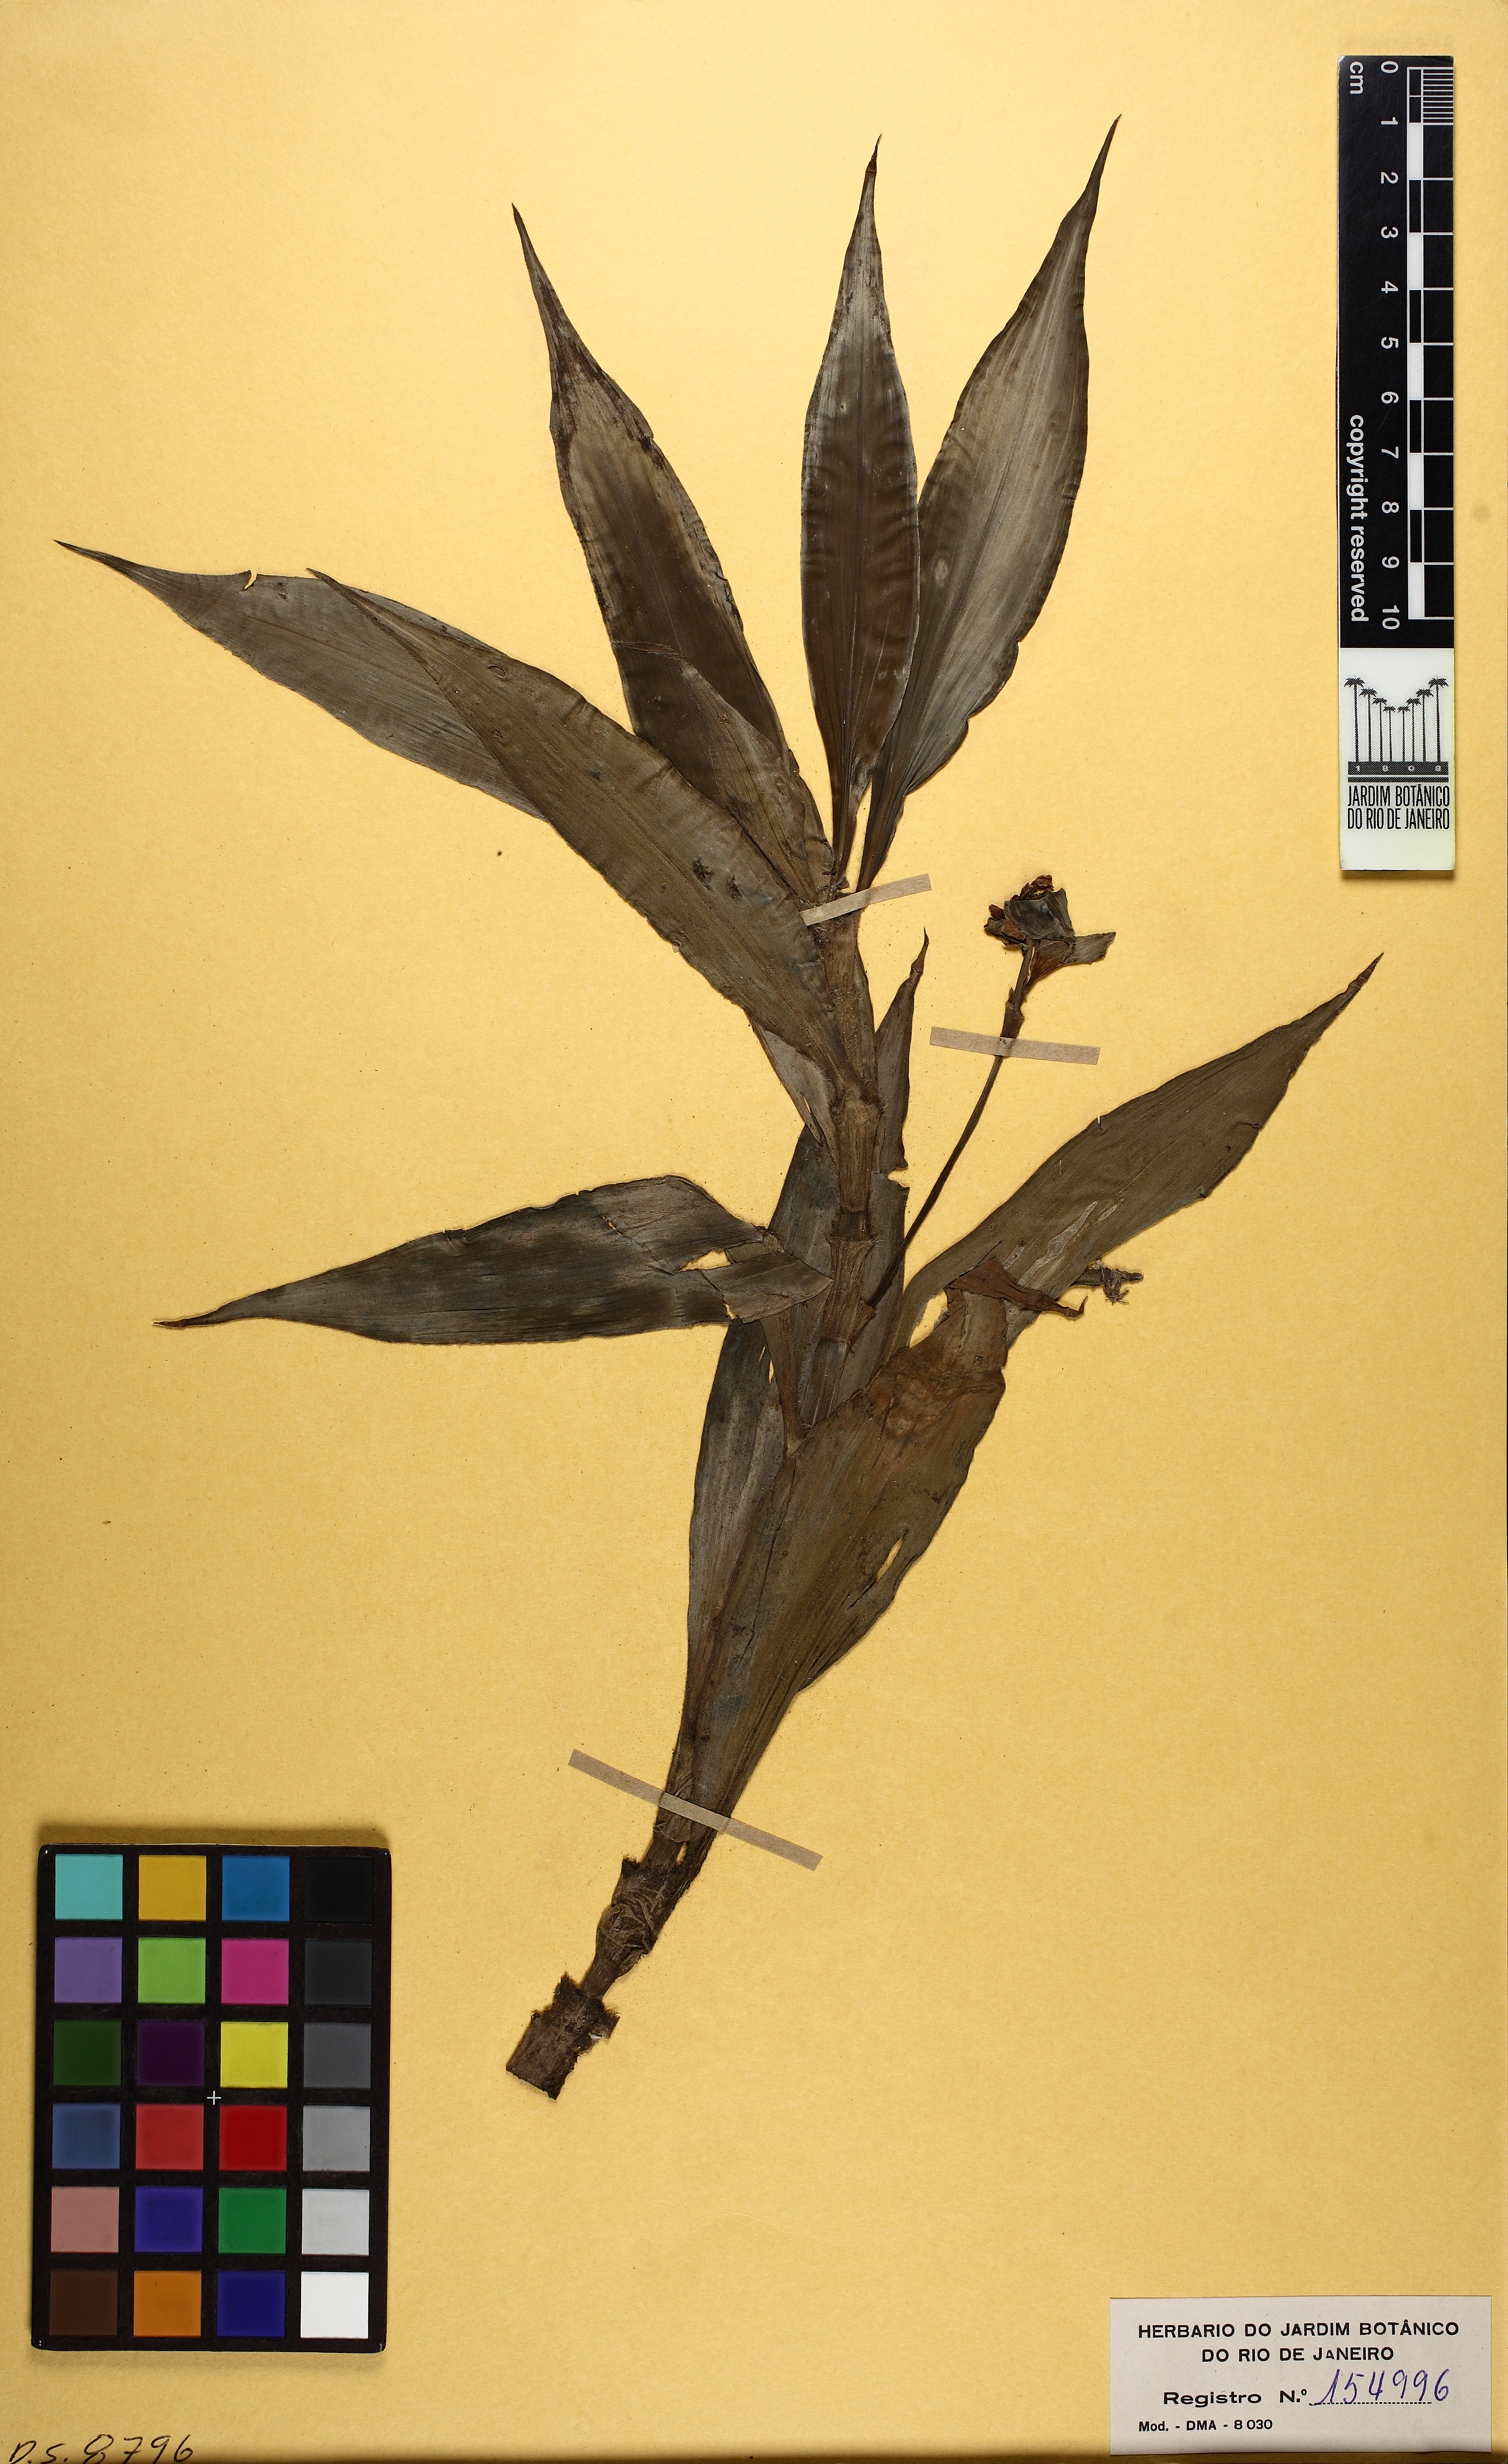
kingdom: Plantae
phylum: Tracheophyta
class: Liliopsida
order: Commelinales
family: Commelinaceae
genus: Tradescantia
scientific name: Tradescantia zanonia
